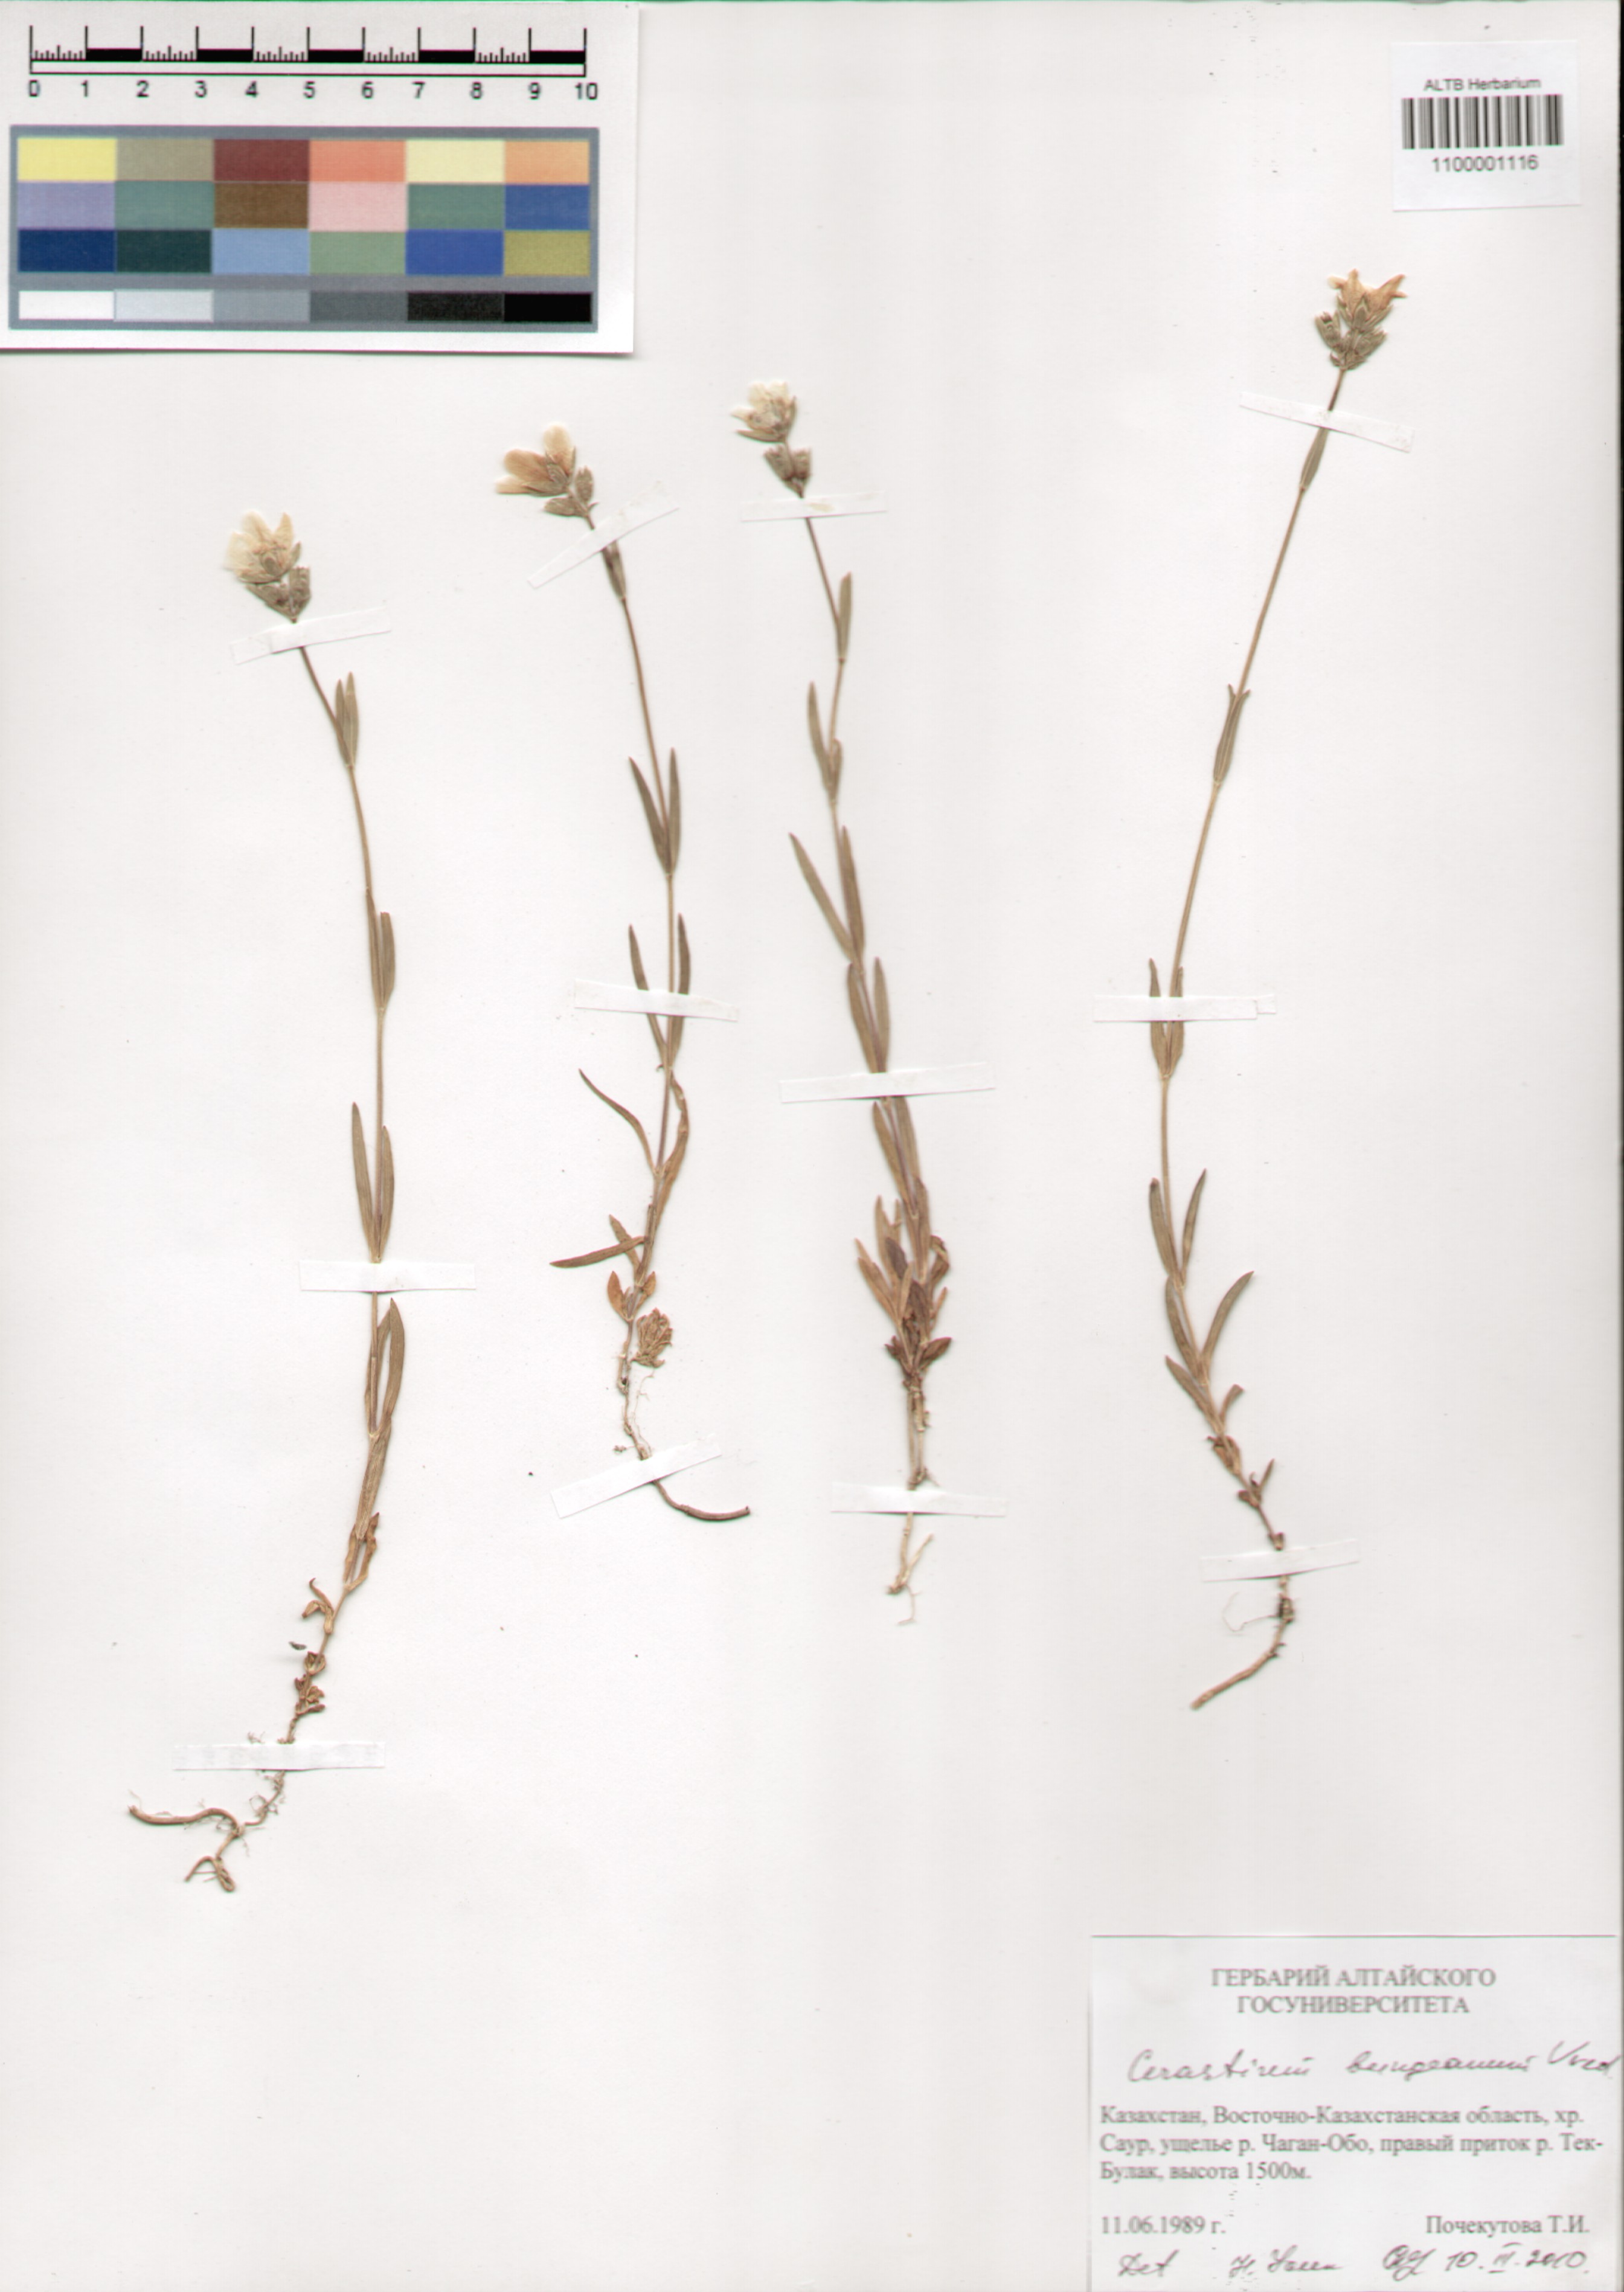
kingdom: Plantae
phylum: Tracheophyta
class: Magnoliopsida
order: Caryophyllales
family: Caryophyllaceae
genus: Dichodon
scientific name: Dichodon maximum
